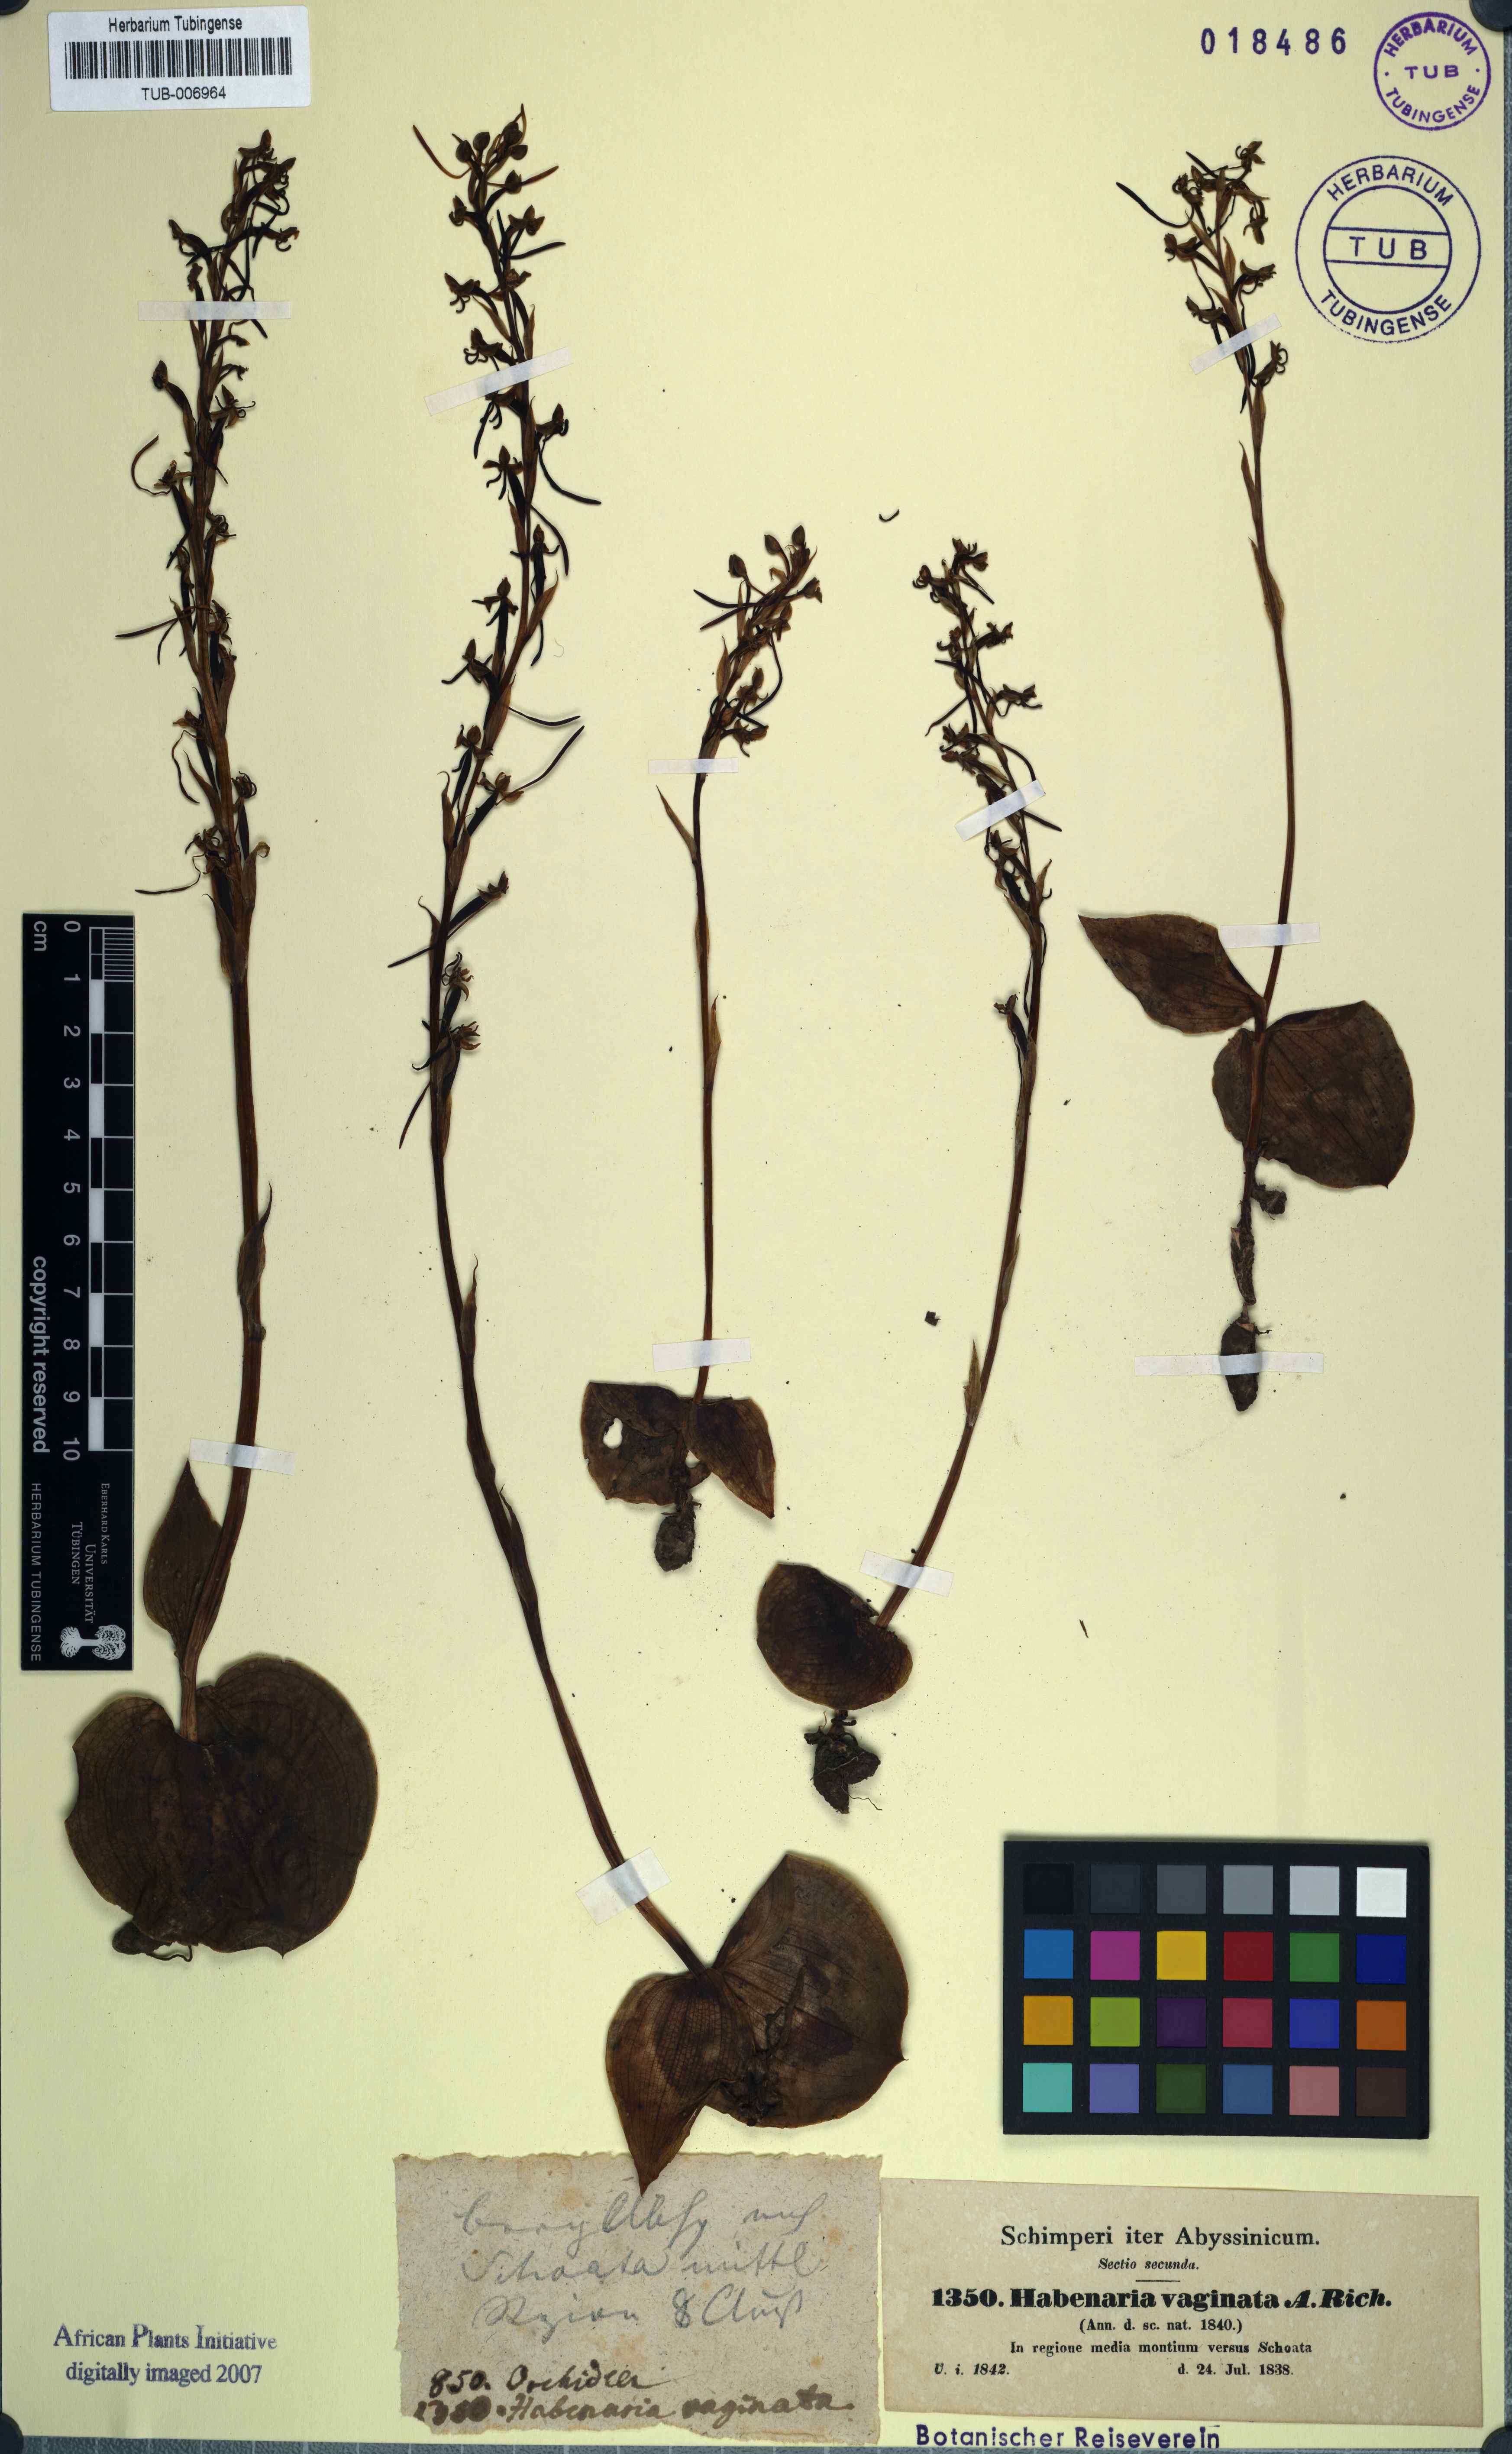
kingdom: Plantae
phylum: Tracheophyta
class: Liliopsida
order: Asparagales
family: Orchidaceae
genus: Habenaria
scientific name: Habenaria vaginata
